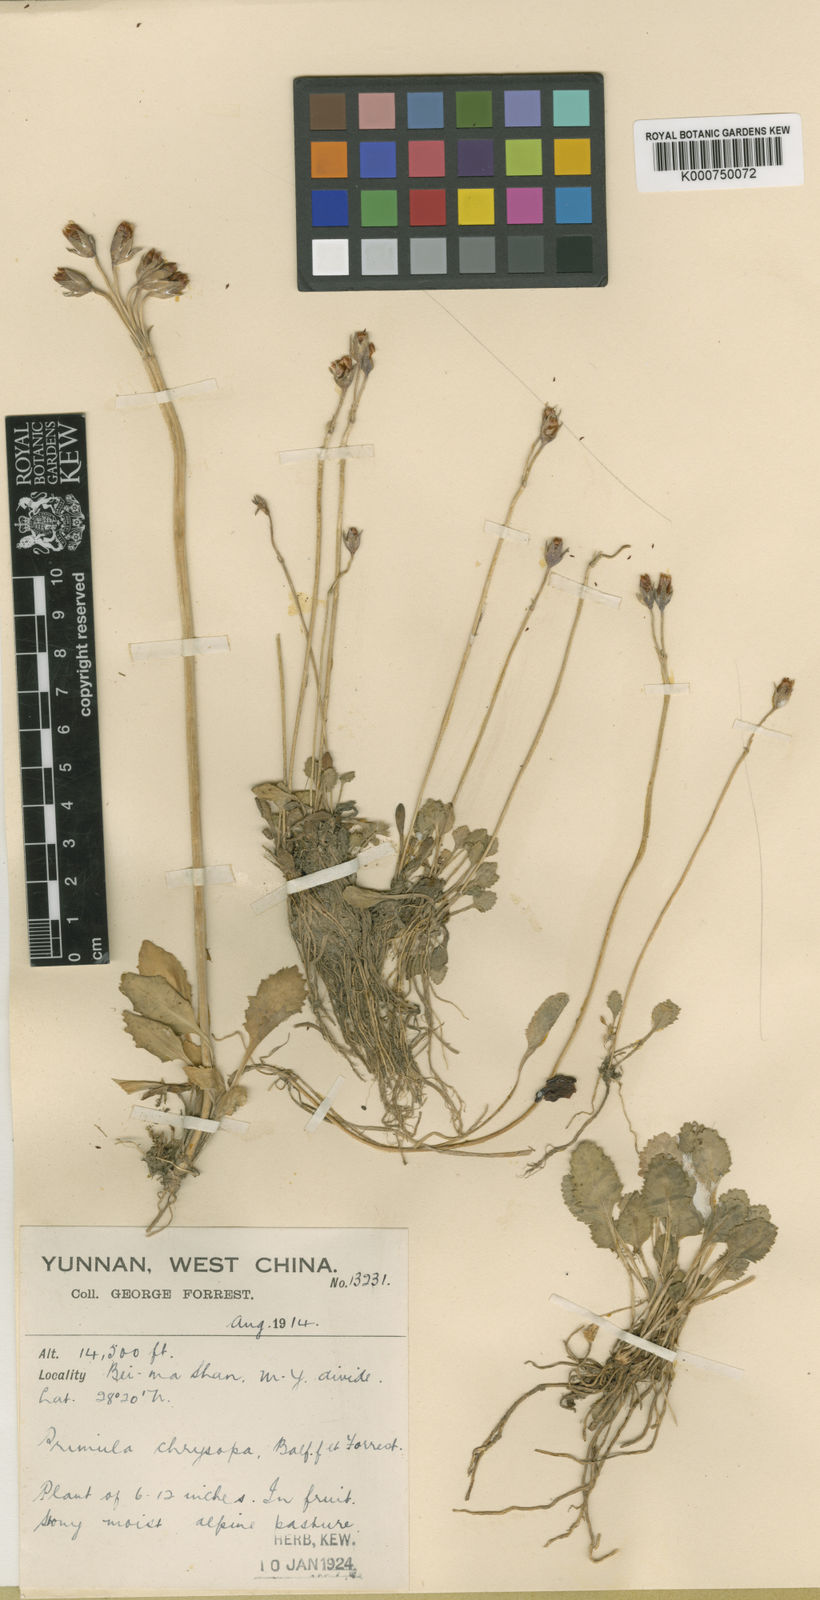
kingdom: Plantae
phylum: Tracheophyta
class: Magnoliopsida
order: Ericales
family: Primulaceae
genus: Primula
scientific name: Primula
